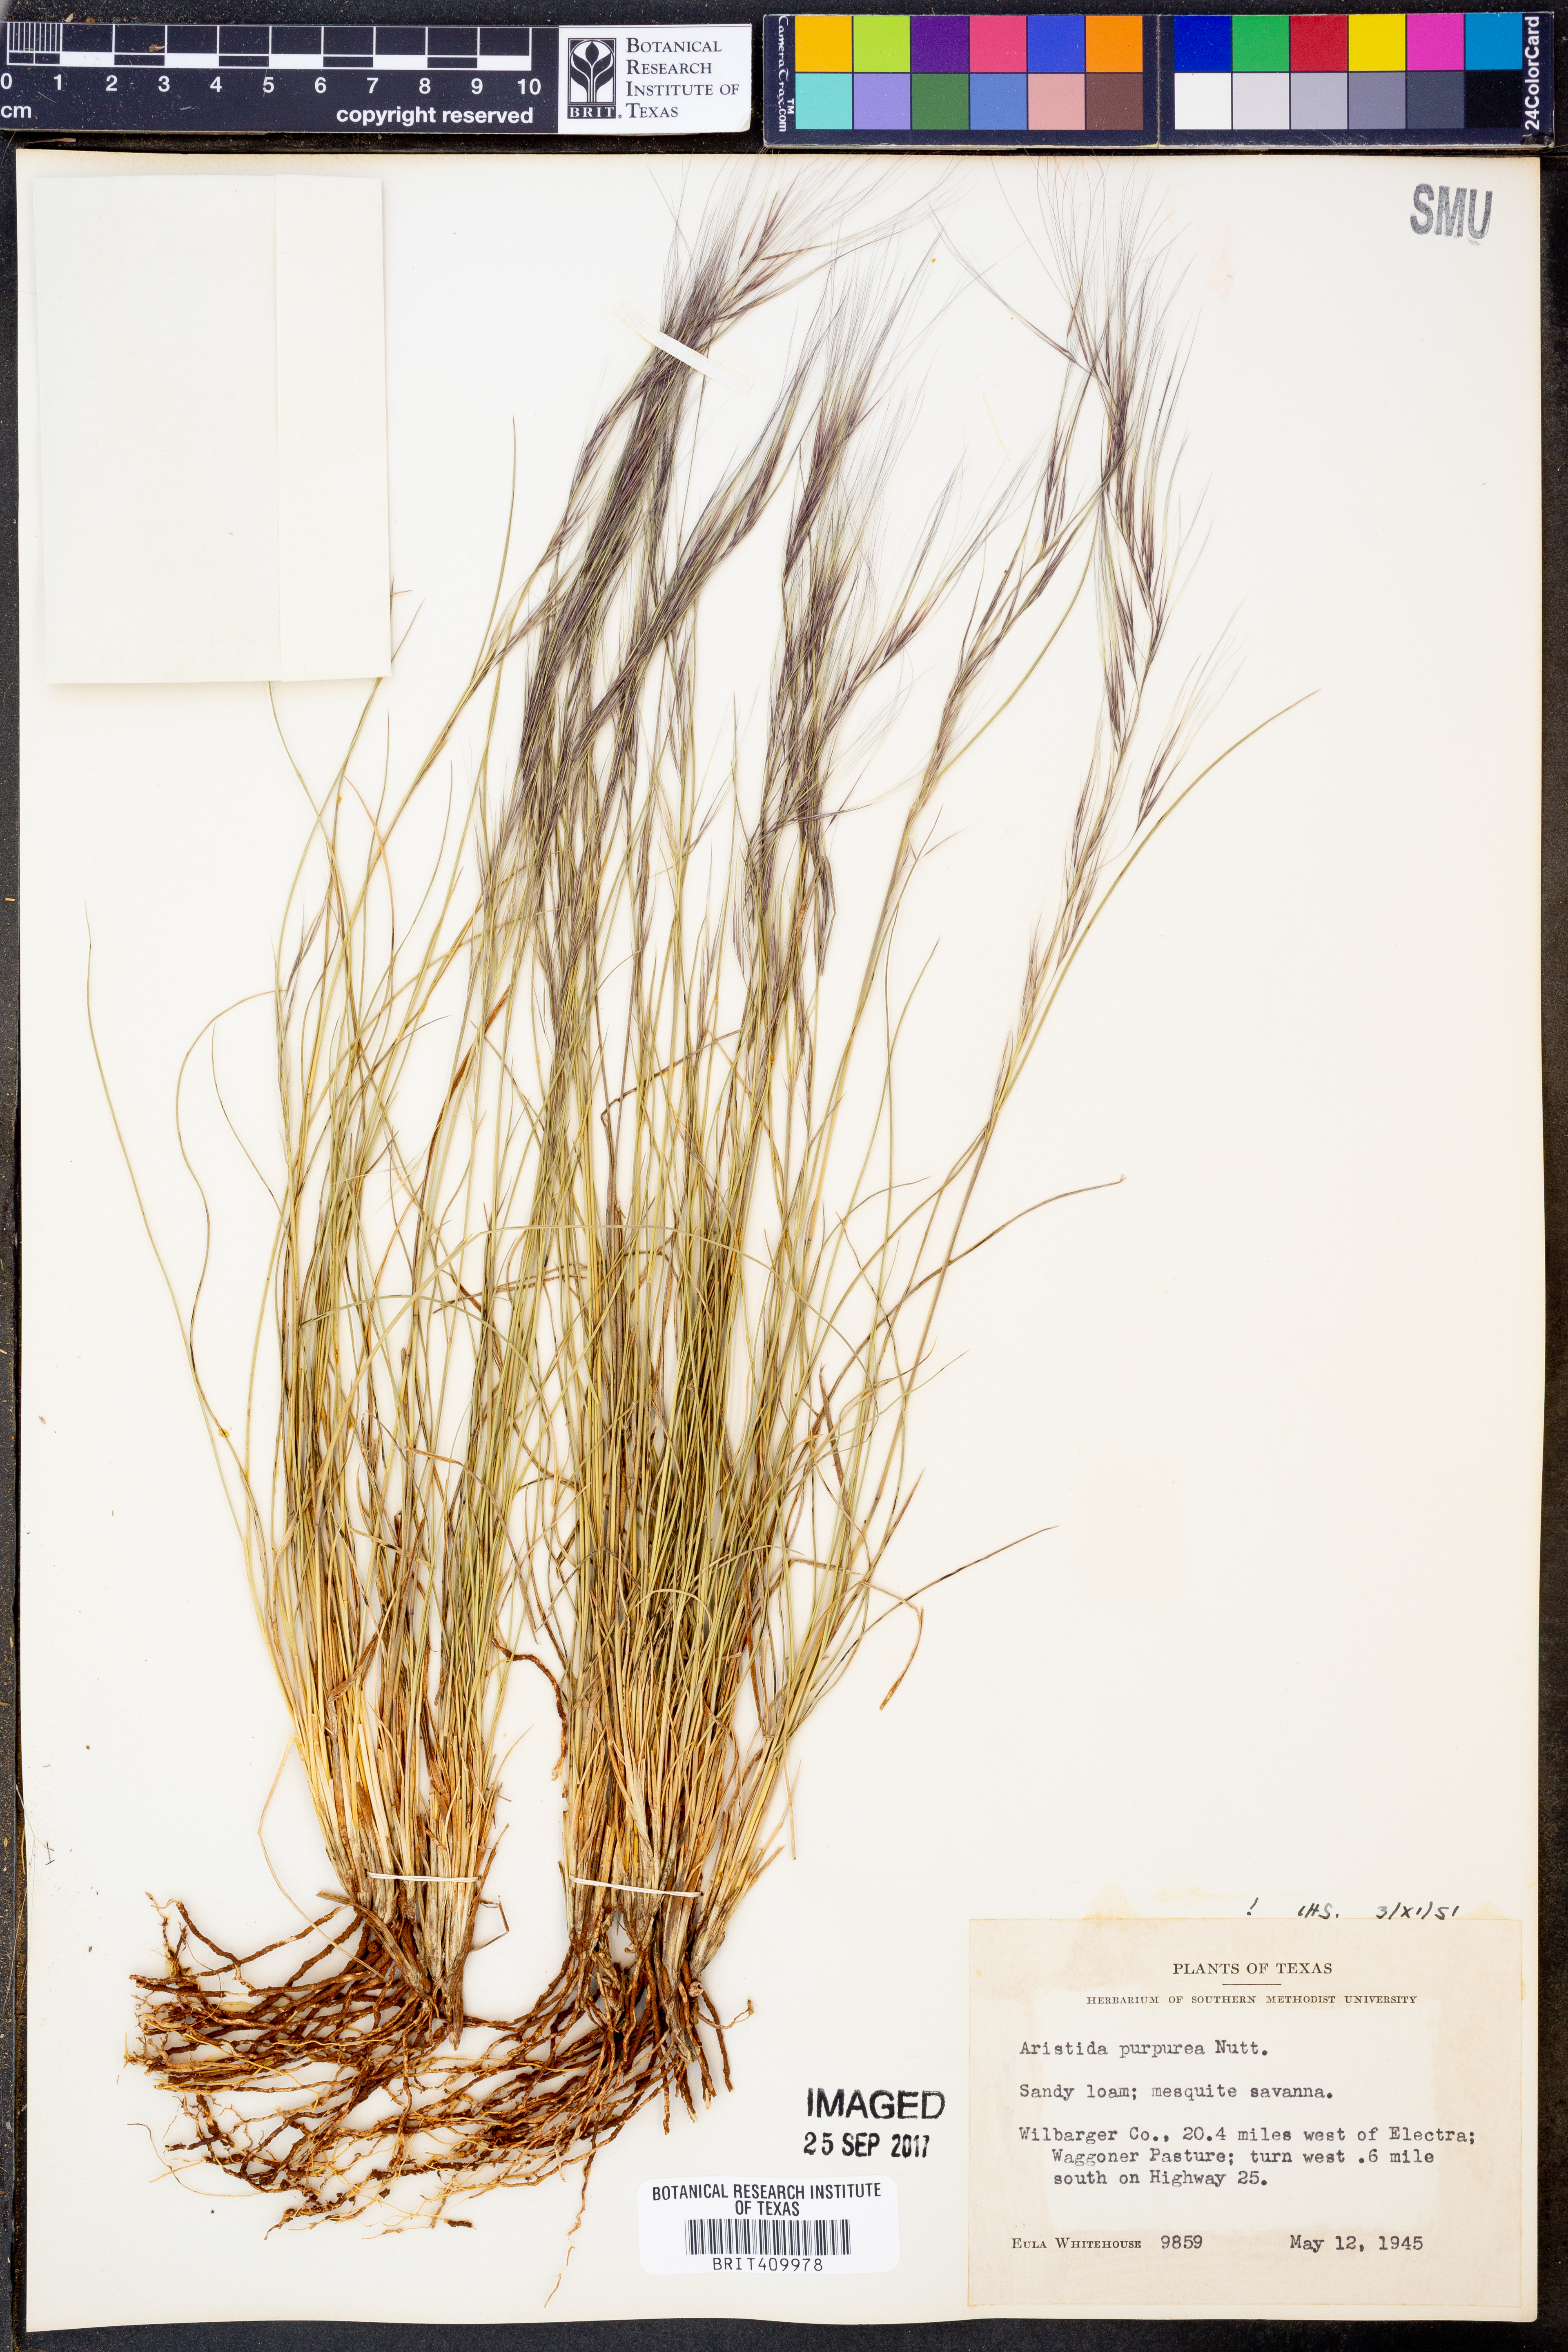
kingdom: Plantae
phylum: Tracheophyta
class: Liliopsida
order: Poales
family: Poaceae
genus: Aristida
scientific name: Aristida purpurea
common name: Purple threeawn
